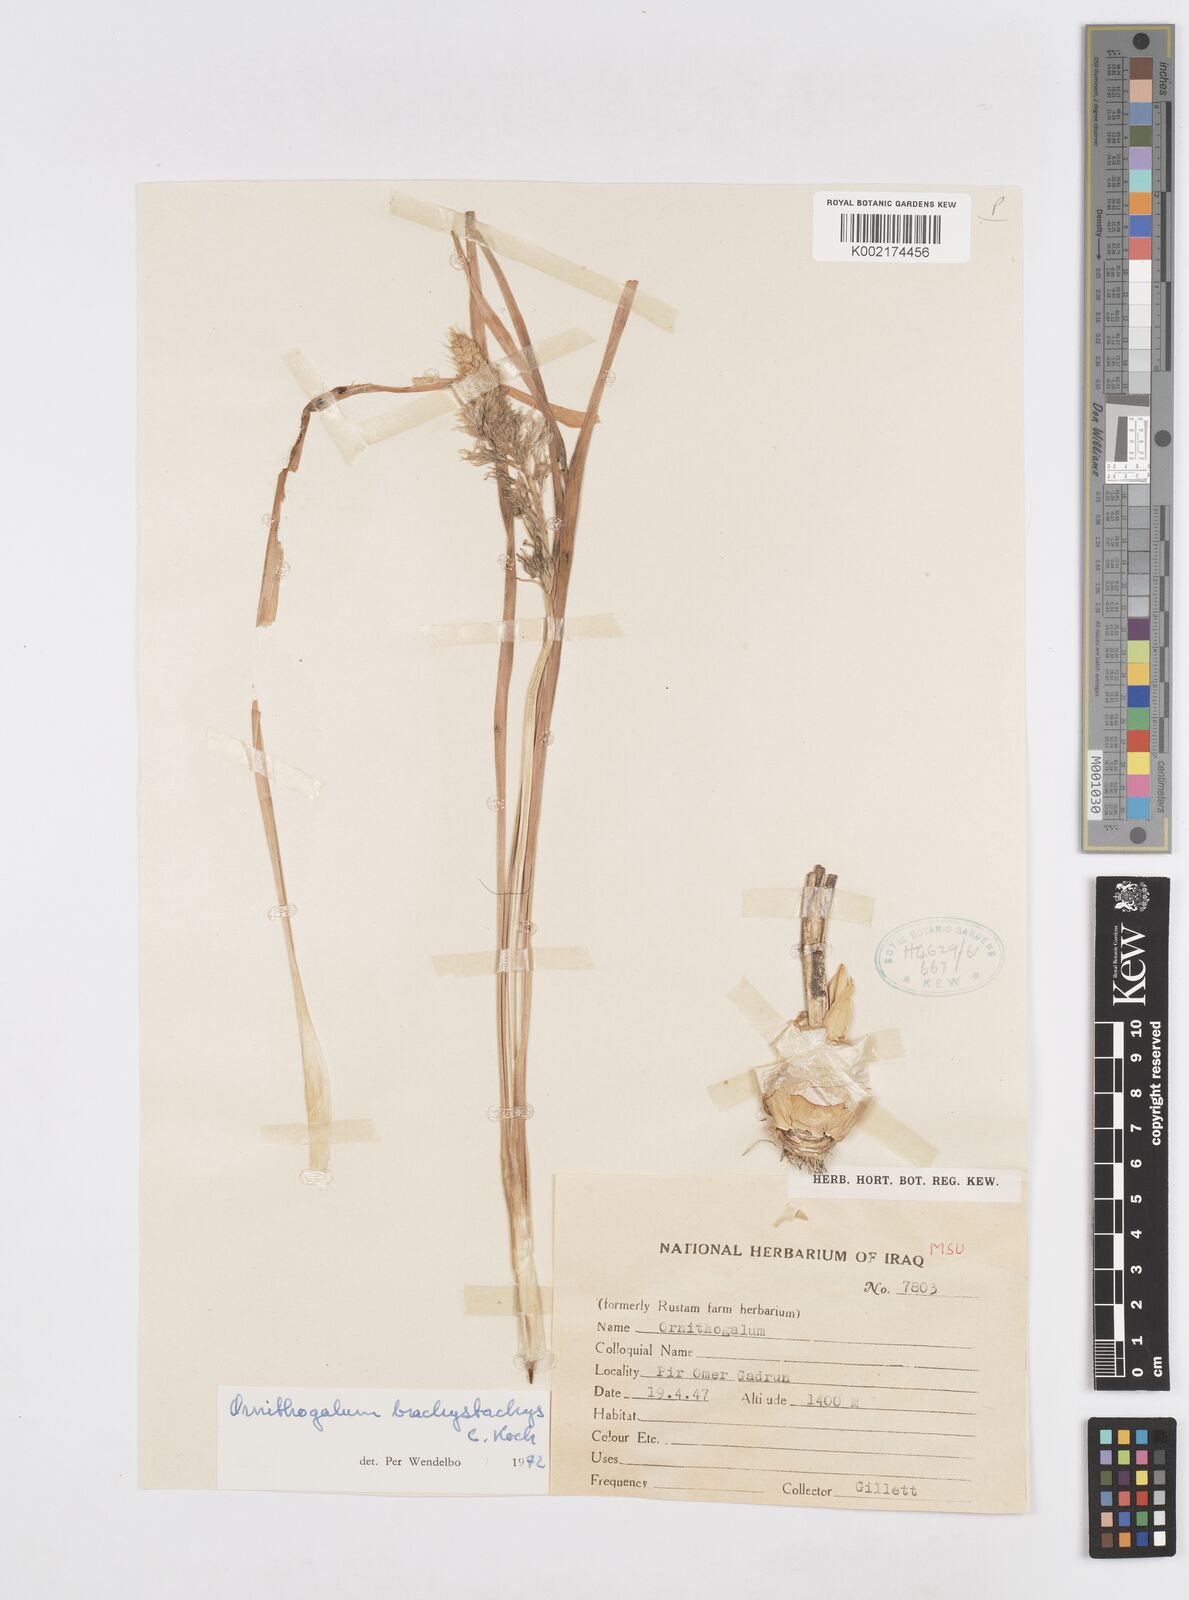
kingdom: Plantae
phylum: Tracheophyta
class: Liliopsida
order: Asparagales
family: Asparagaceae
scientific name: Asparagaceae
